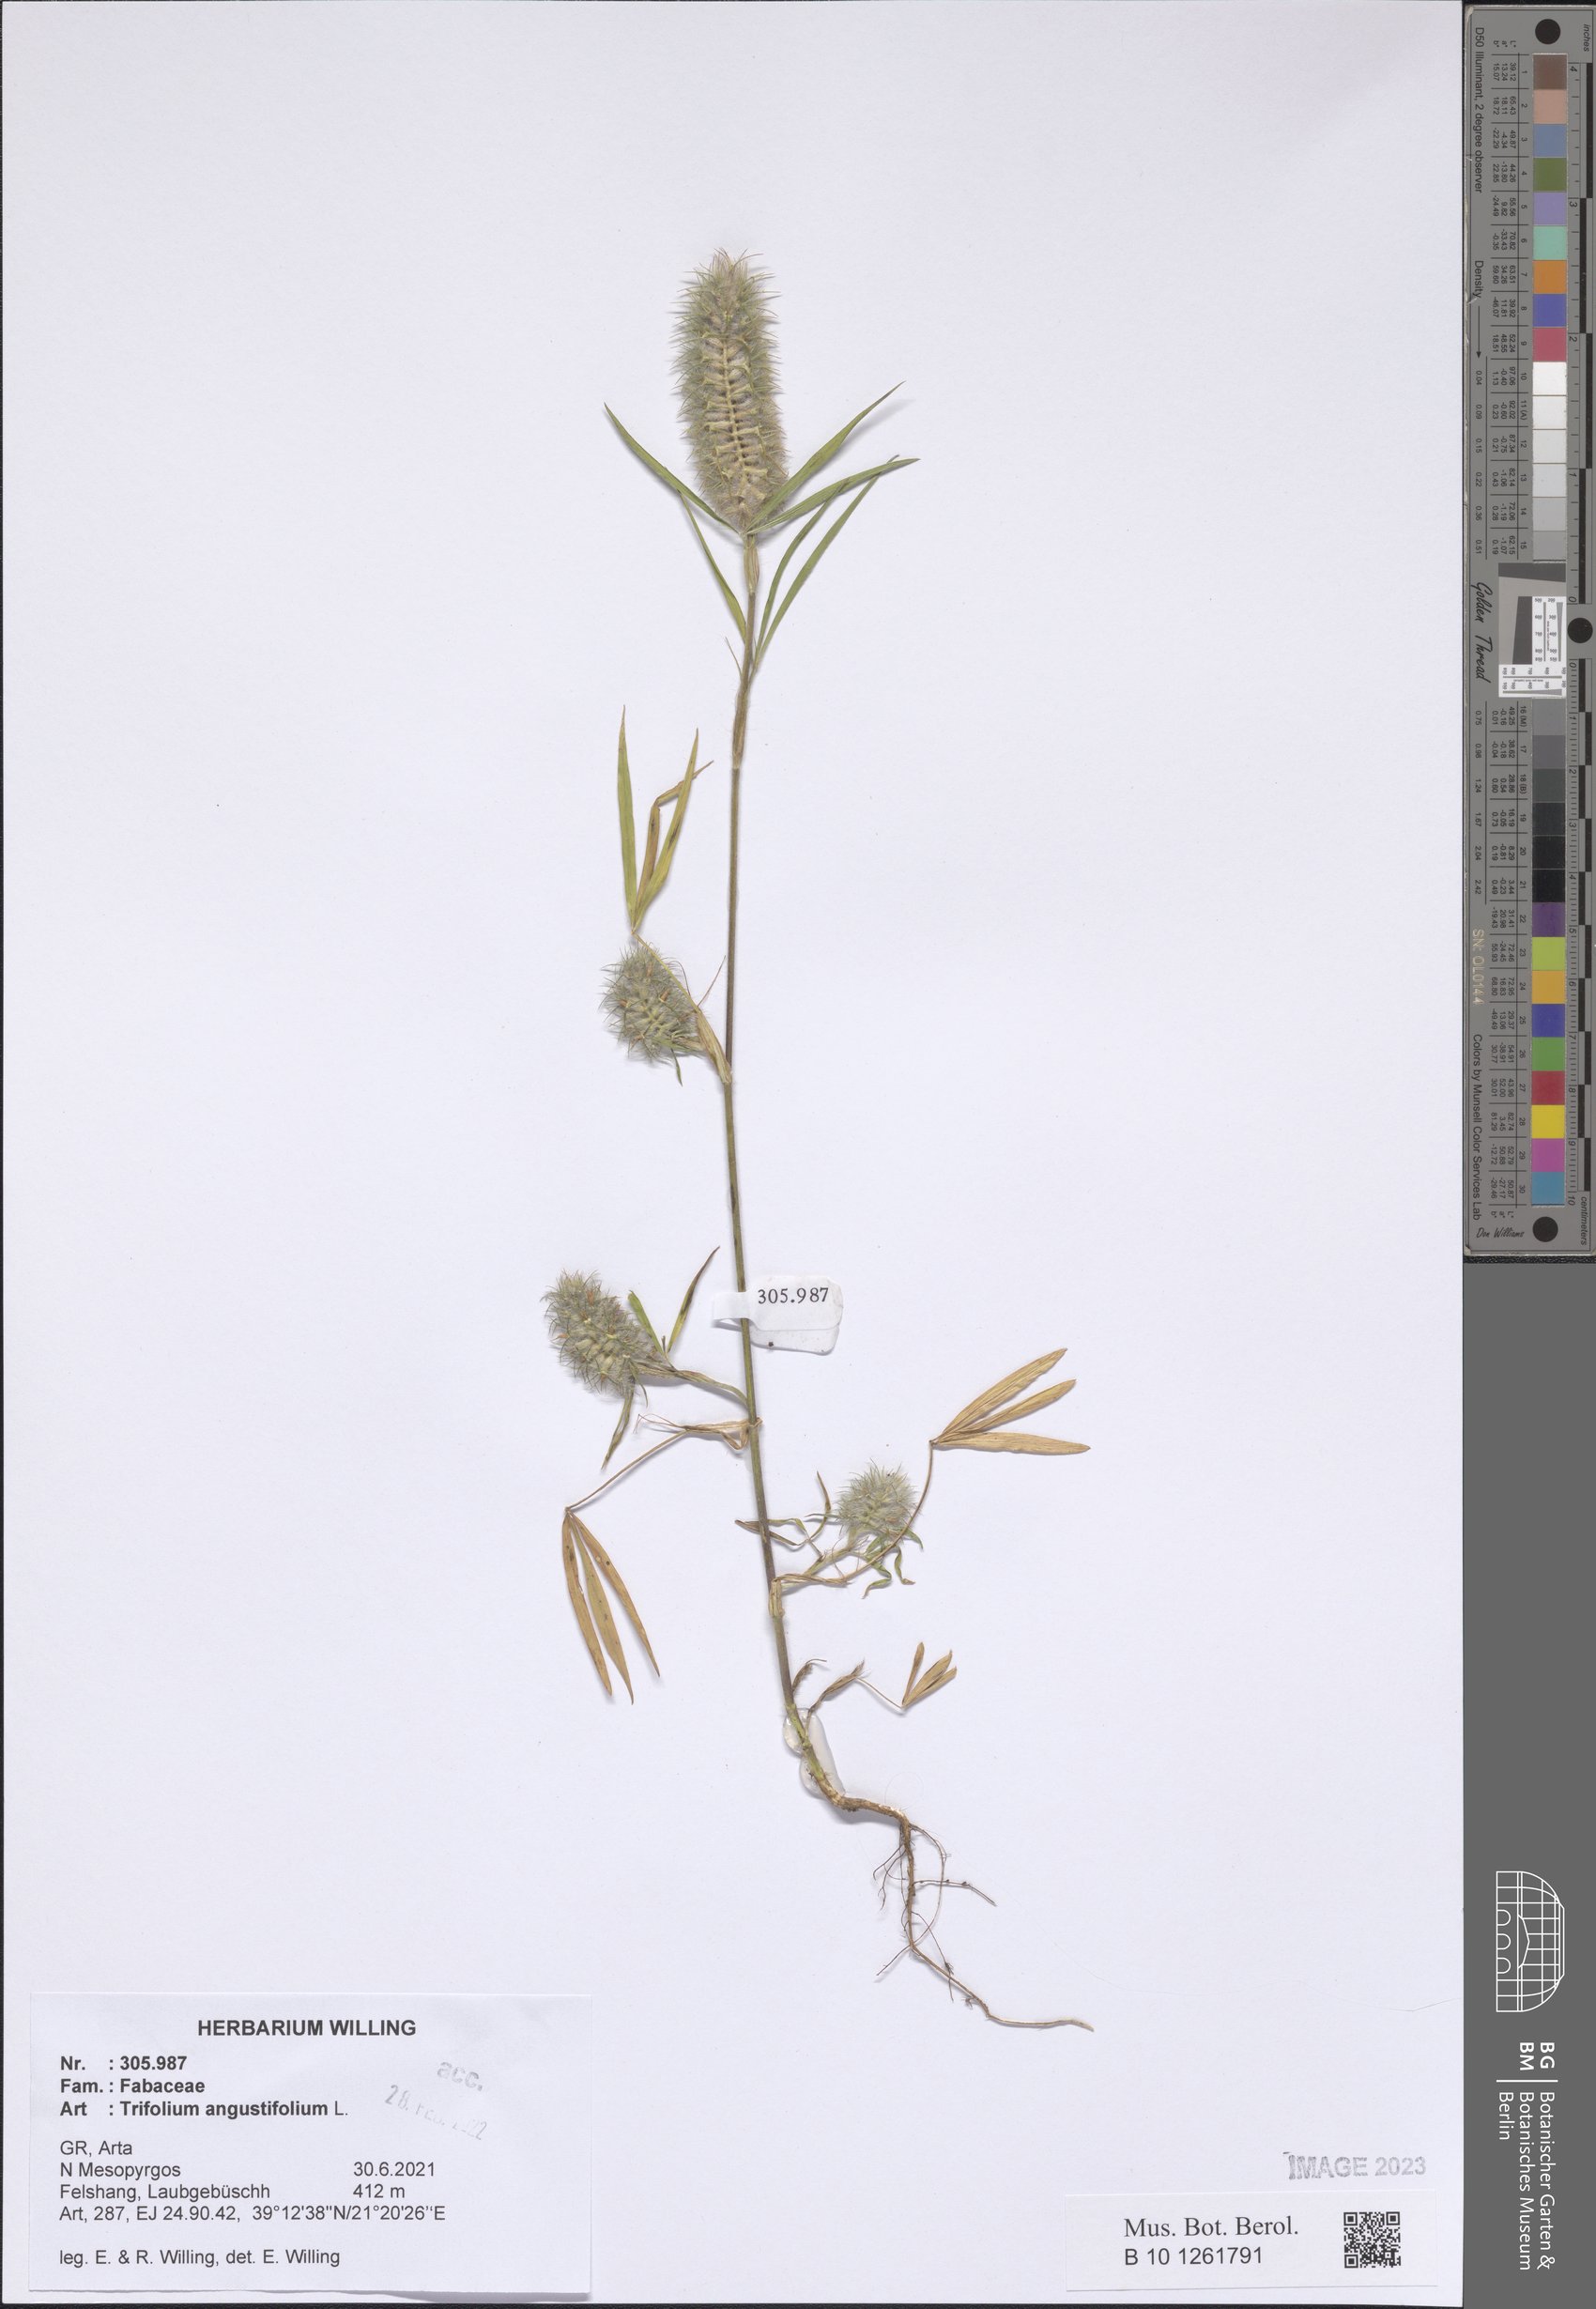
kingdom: Plantae
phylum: Tracheophyta
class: Magnoliopsida
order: Fabales
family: Fabaceae
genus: Trifolium
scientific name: Trifolium angustifolium
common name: Narrow clover
